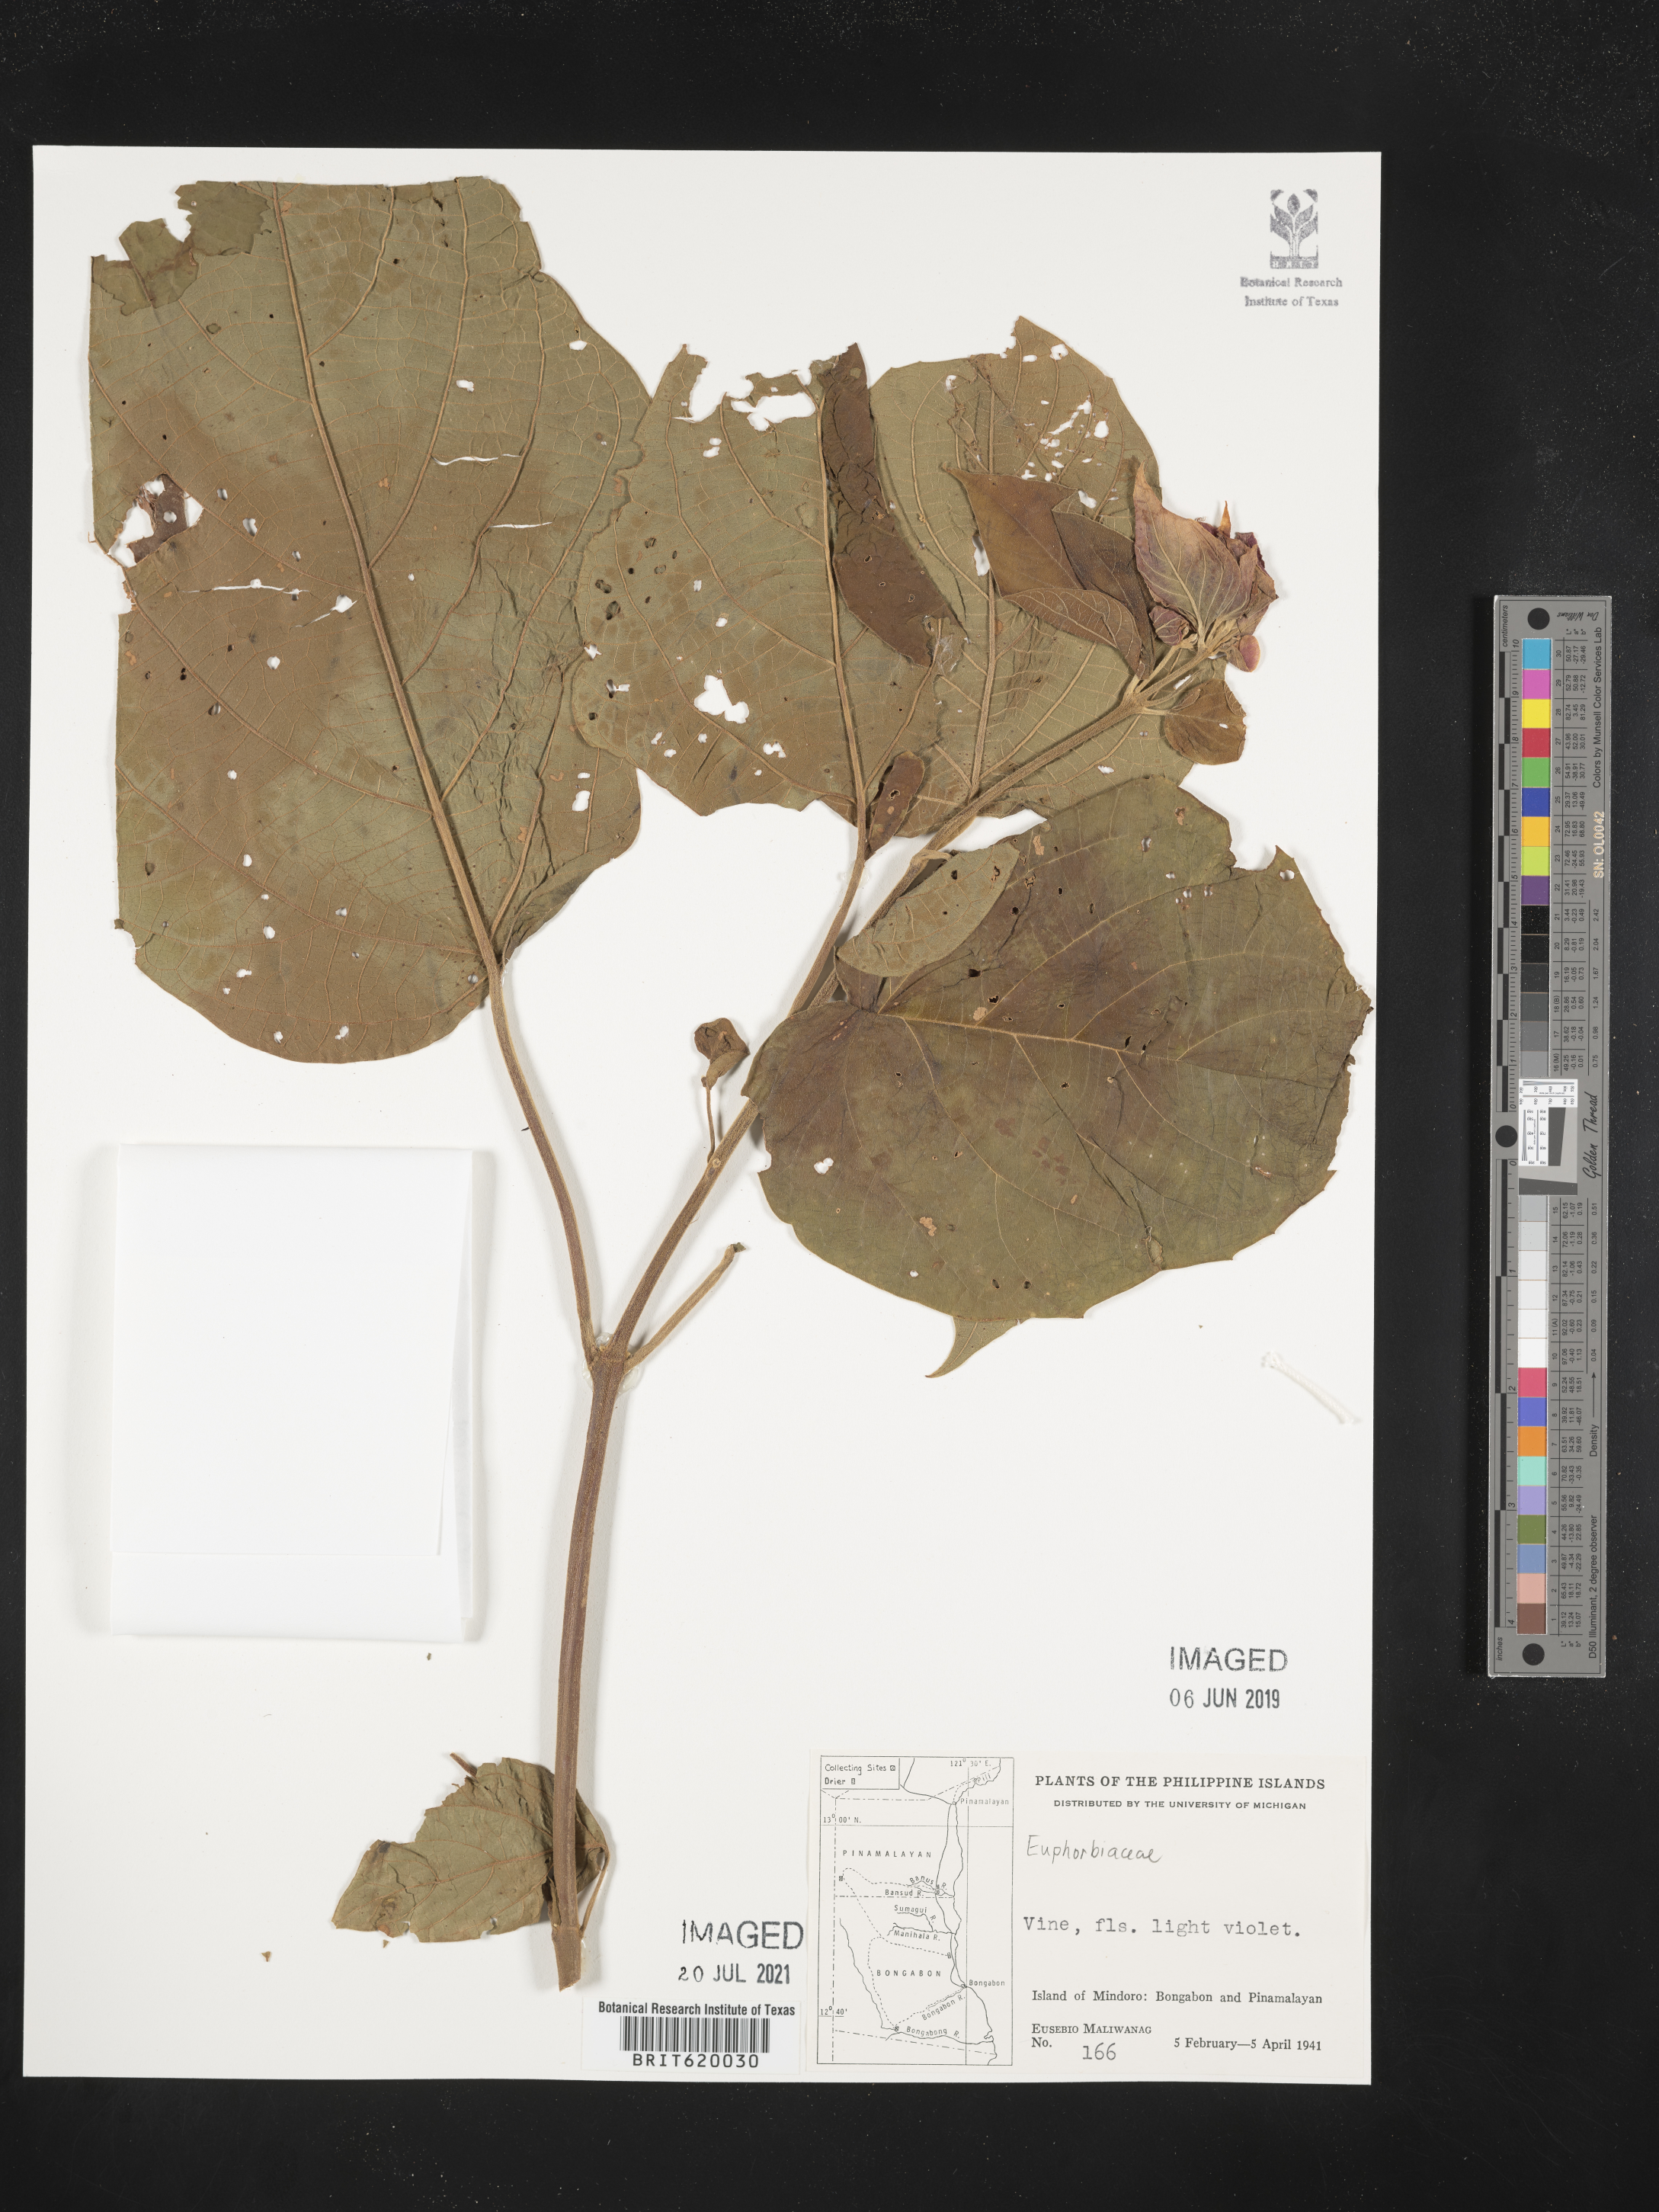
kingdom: Plantae
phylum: Tracheophyta
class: Magnoliopsida
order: Malpighiales
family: Euphorbiaceae
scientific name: Euphorbiaceae
